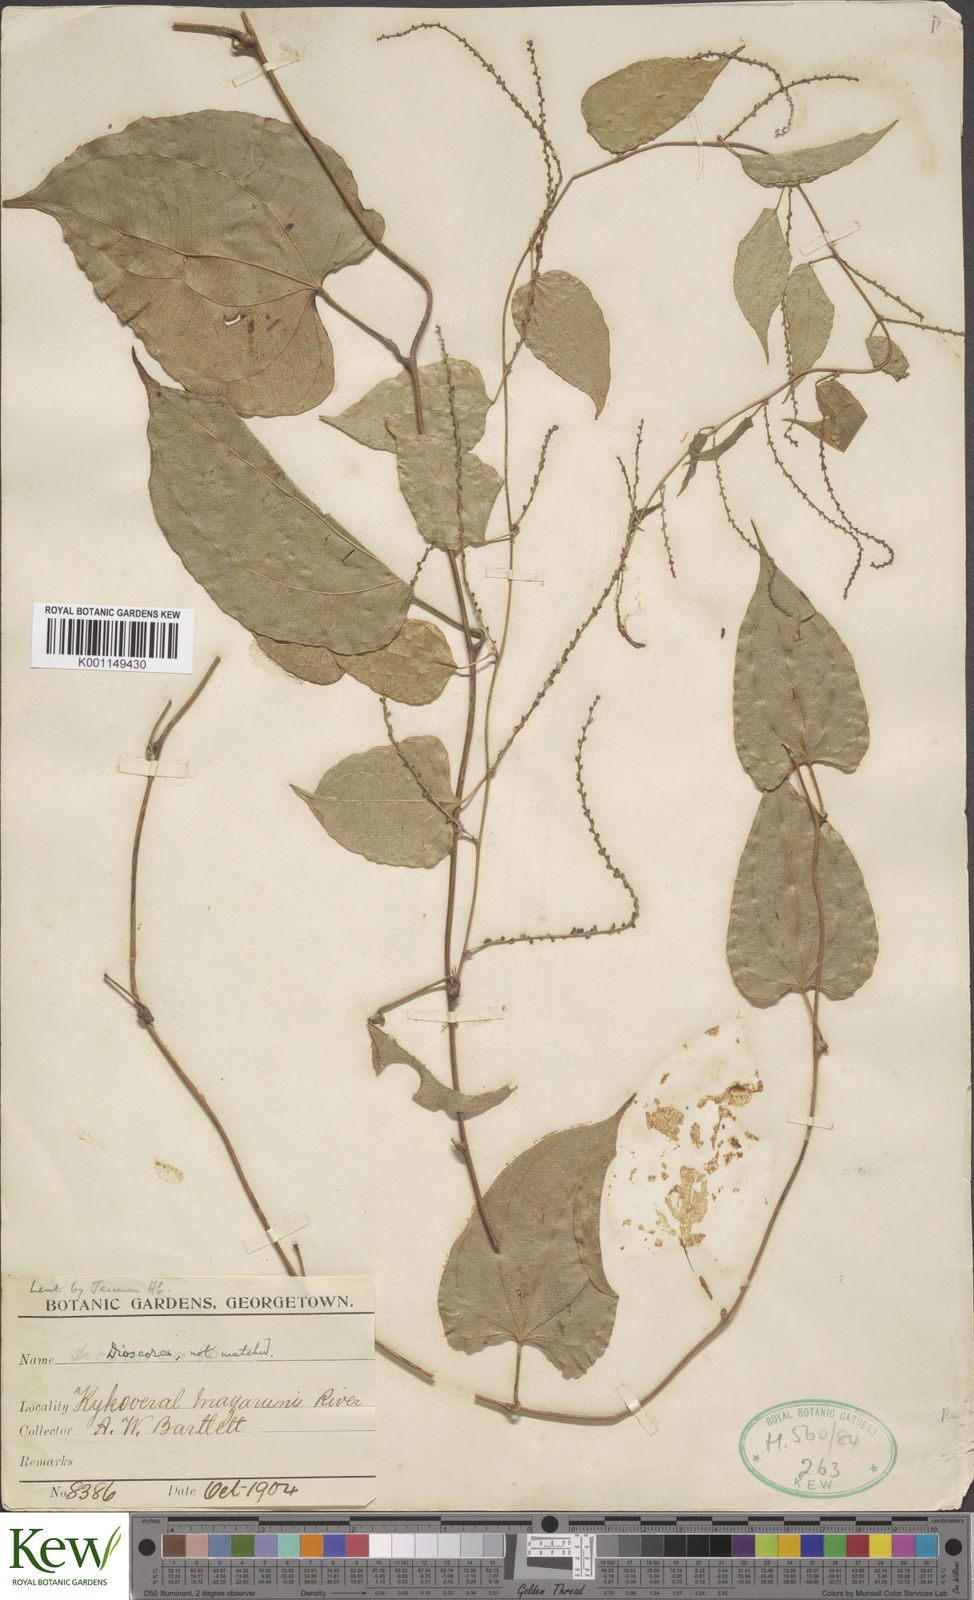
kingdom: Plantae
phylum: Tracheophyta
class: Liliopsida
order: Dioscoreales
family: Dioscoreaceae
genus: Dioscorea
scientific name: Dioscorea
